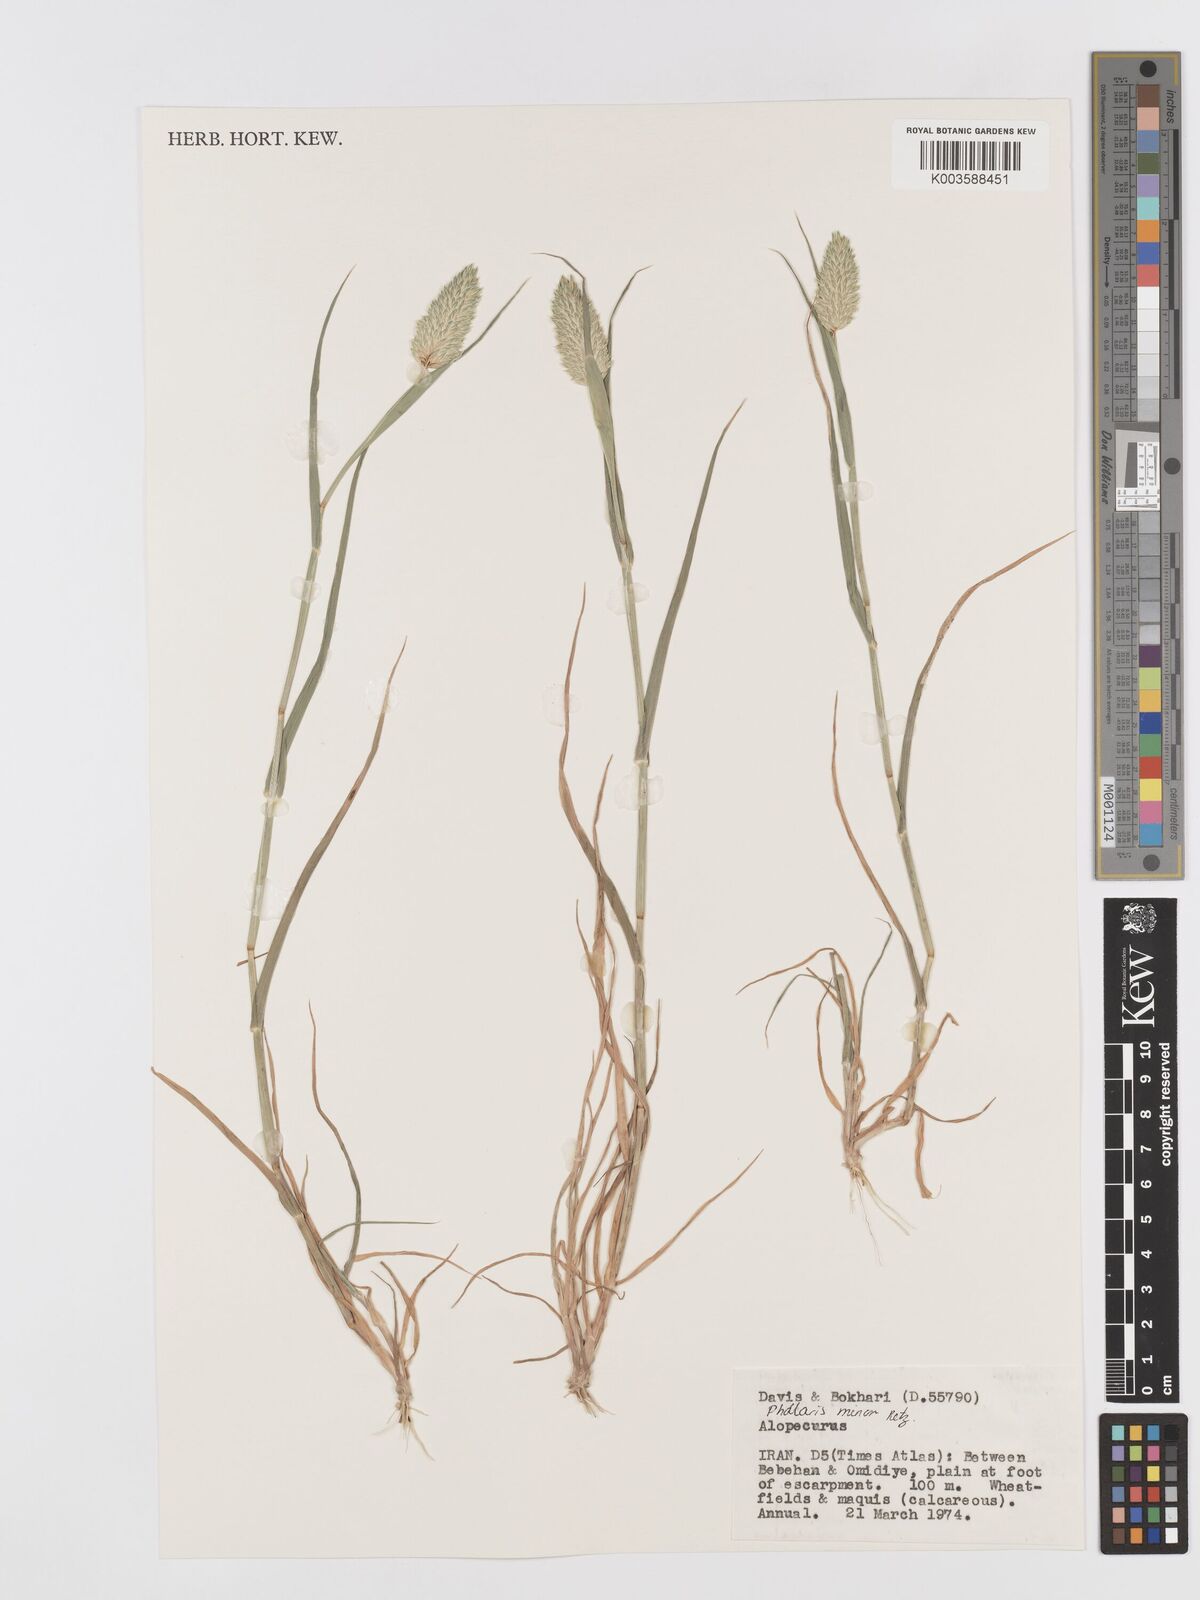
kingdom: Plantae
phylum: Tracheophyta
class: Liliopsida
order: Poales
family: Poaceae
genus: Phalaris
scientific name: Phalaris minor
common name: Littleseed canarygrass
